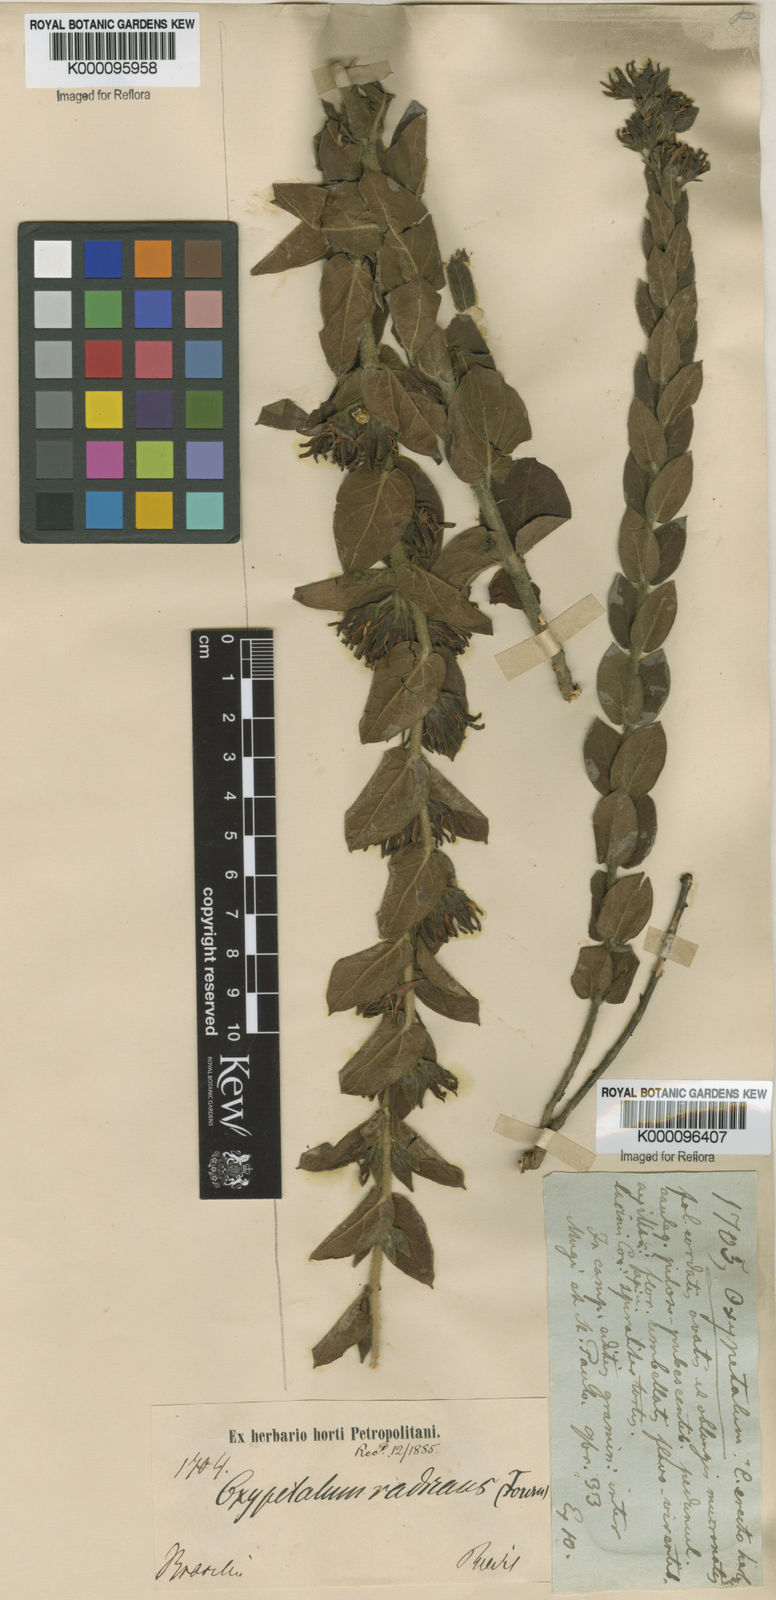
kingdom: Plantae
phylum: Tracheophyta
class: Magnoliopsida
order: Gentianales
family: Apocynaceae
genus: Oxypetalum
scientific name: Oxypetalum erectum
